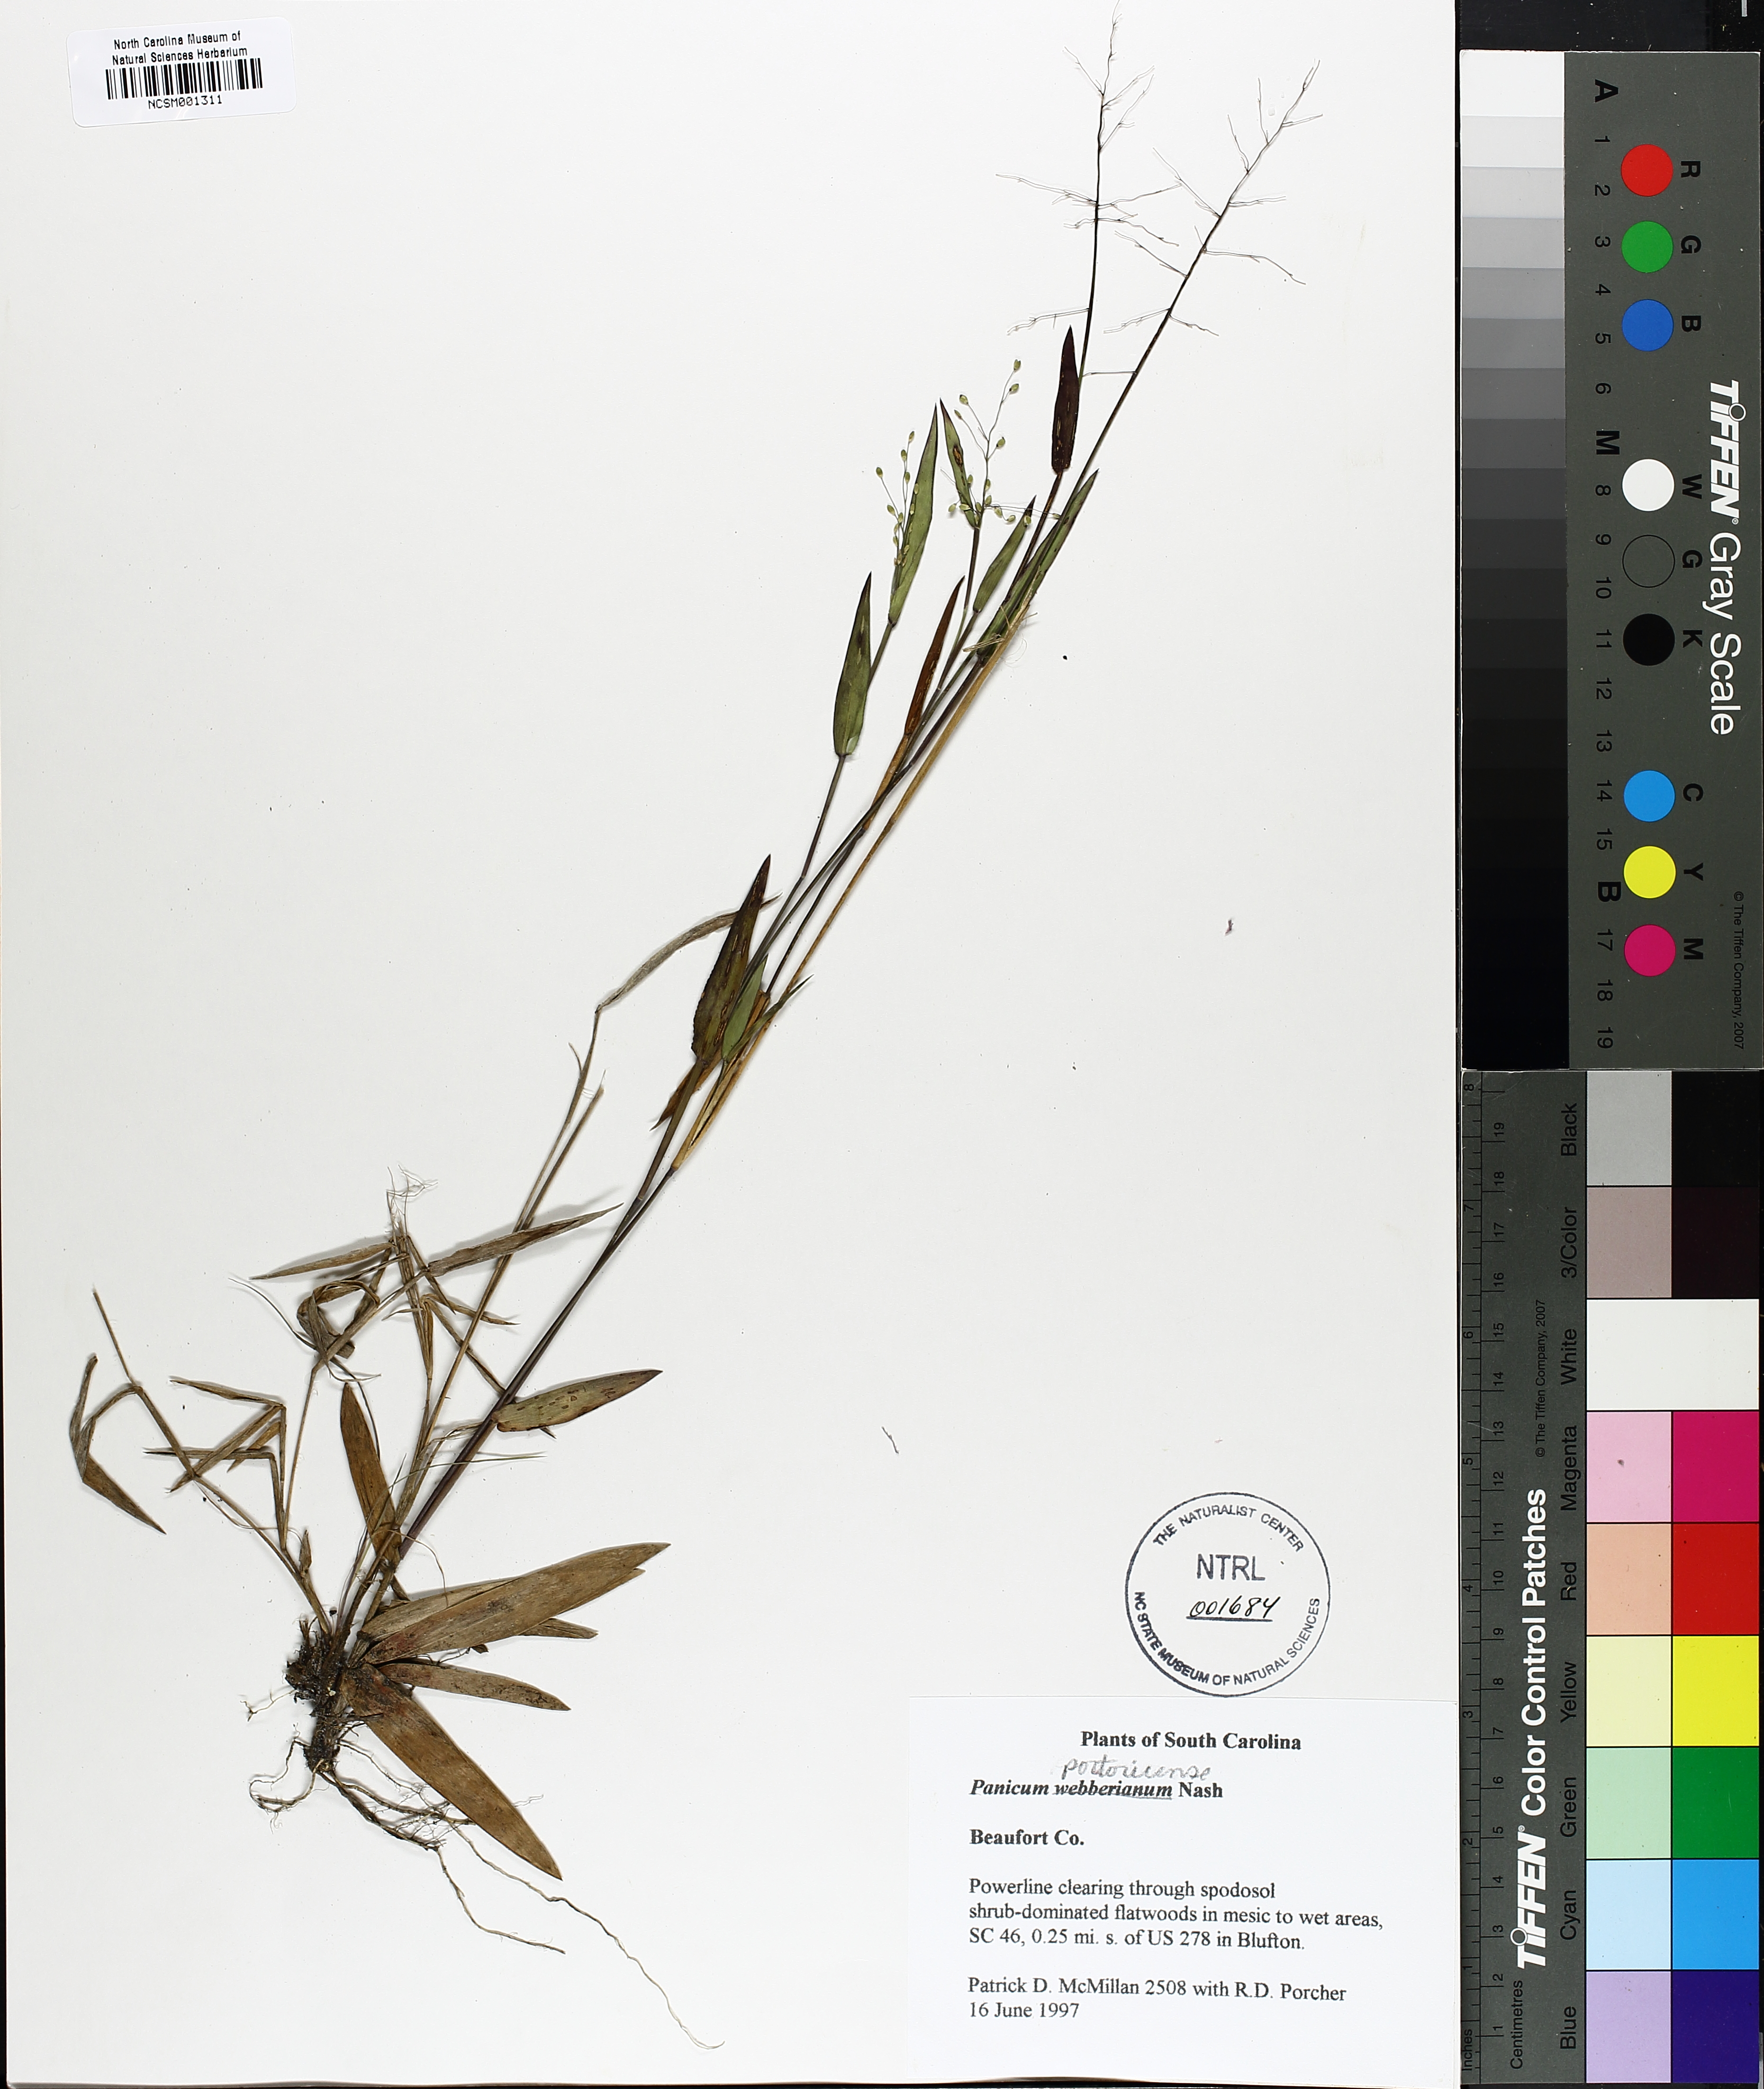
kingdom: Plantae
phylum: Tracheophyta
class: Liliopsida
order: Poales
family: Poaceae
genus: Dichanthelium
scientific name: Dichanthelium webberianum
